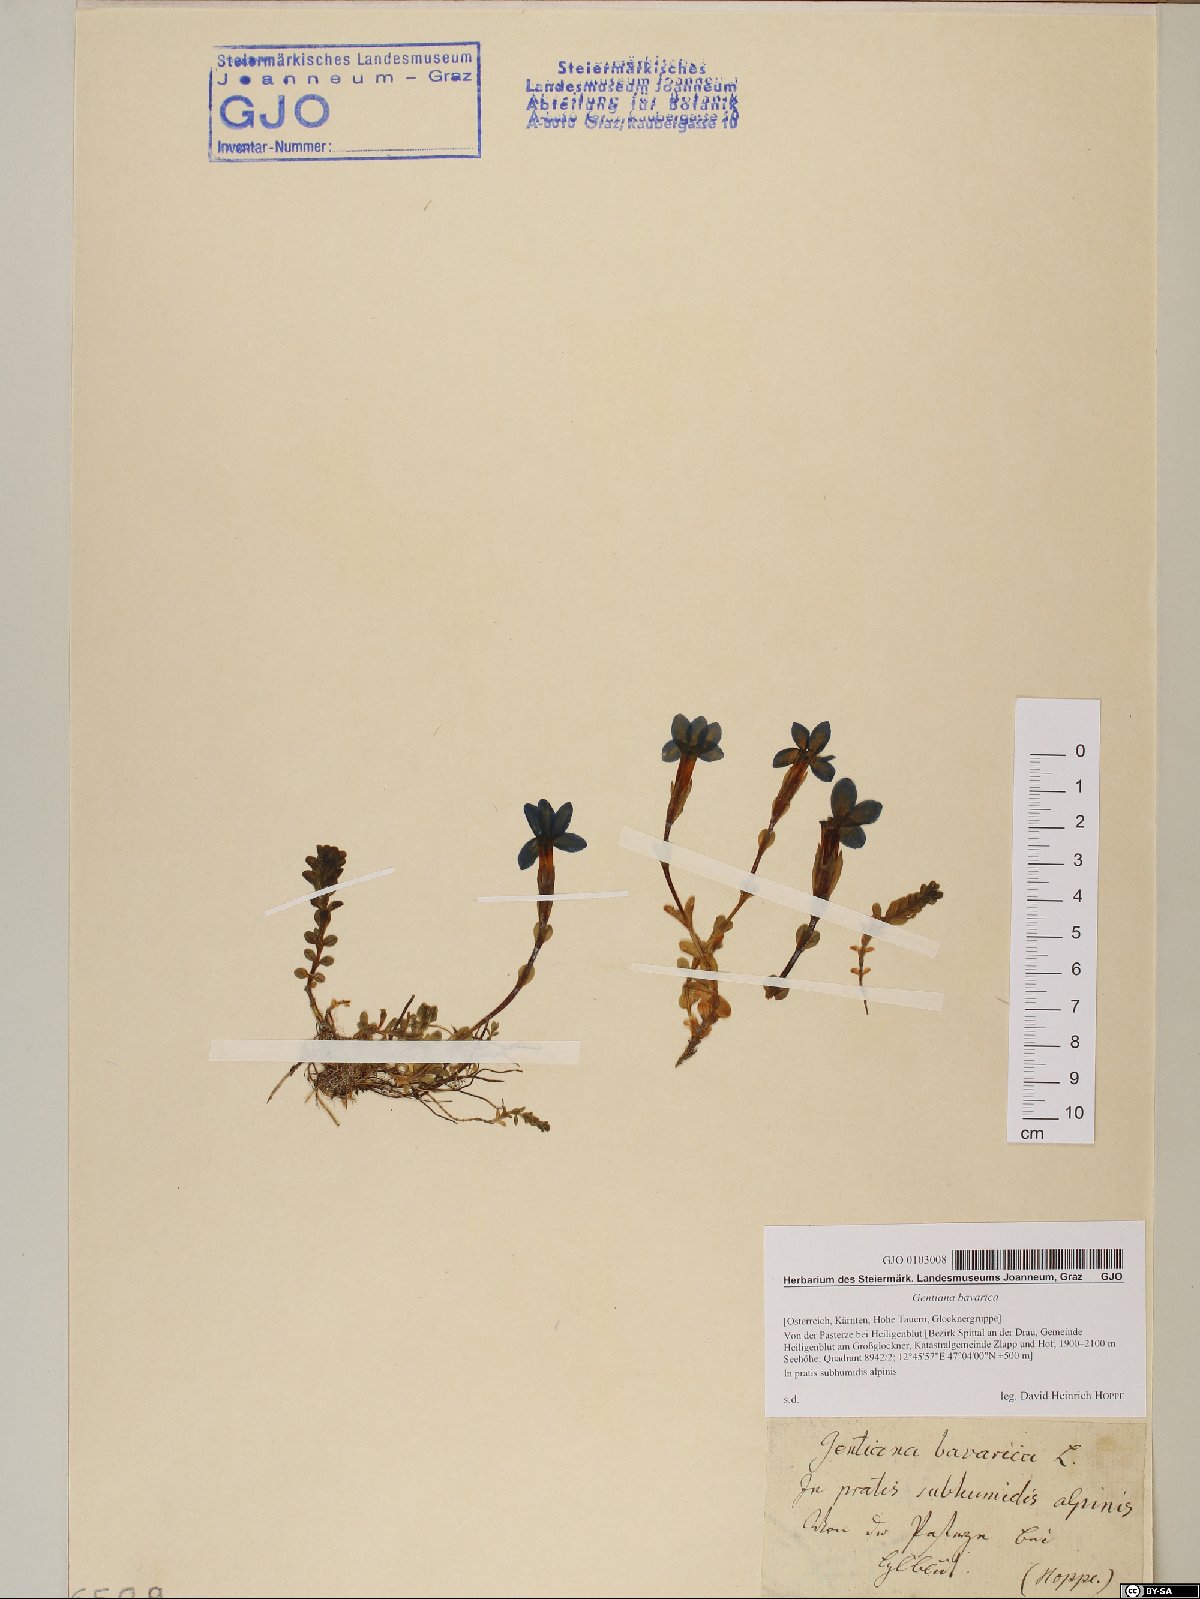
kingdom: Plantae
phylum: Tracheophyta
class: Magnoliopsida
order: Gentianales
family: Gentianaceae
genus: Gentiana
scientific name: Gentiana bavarica
